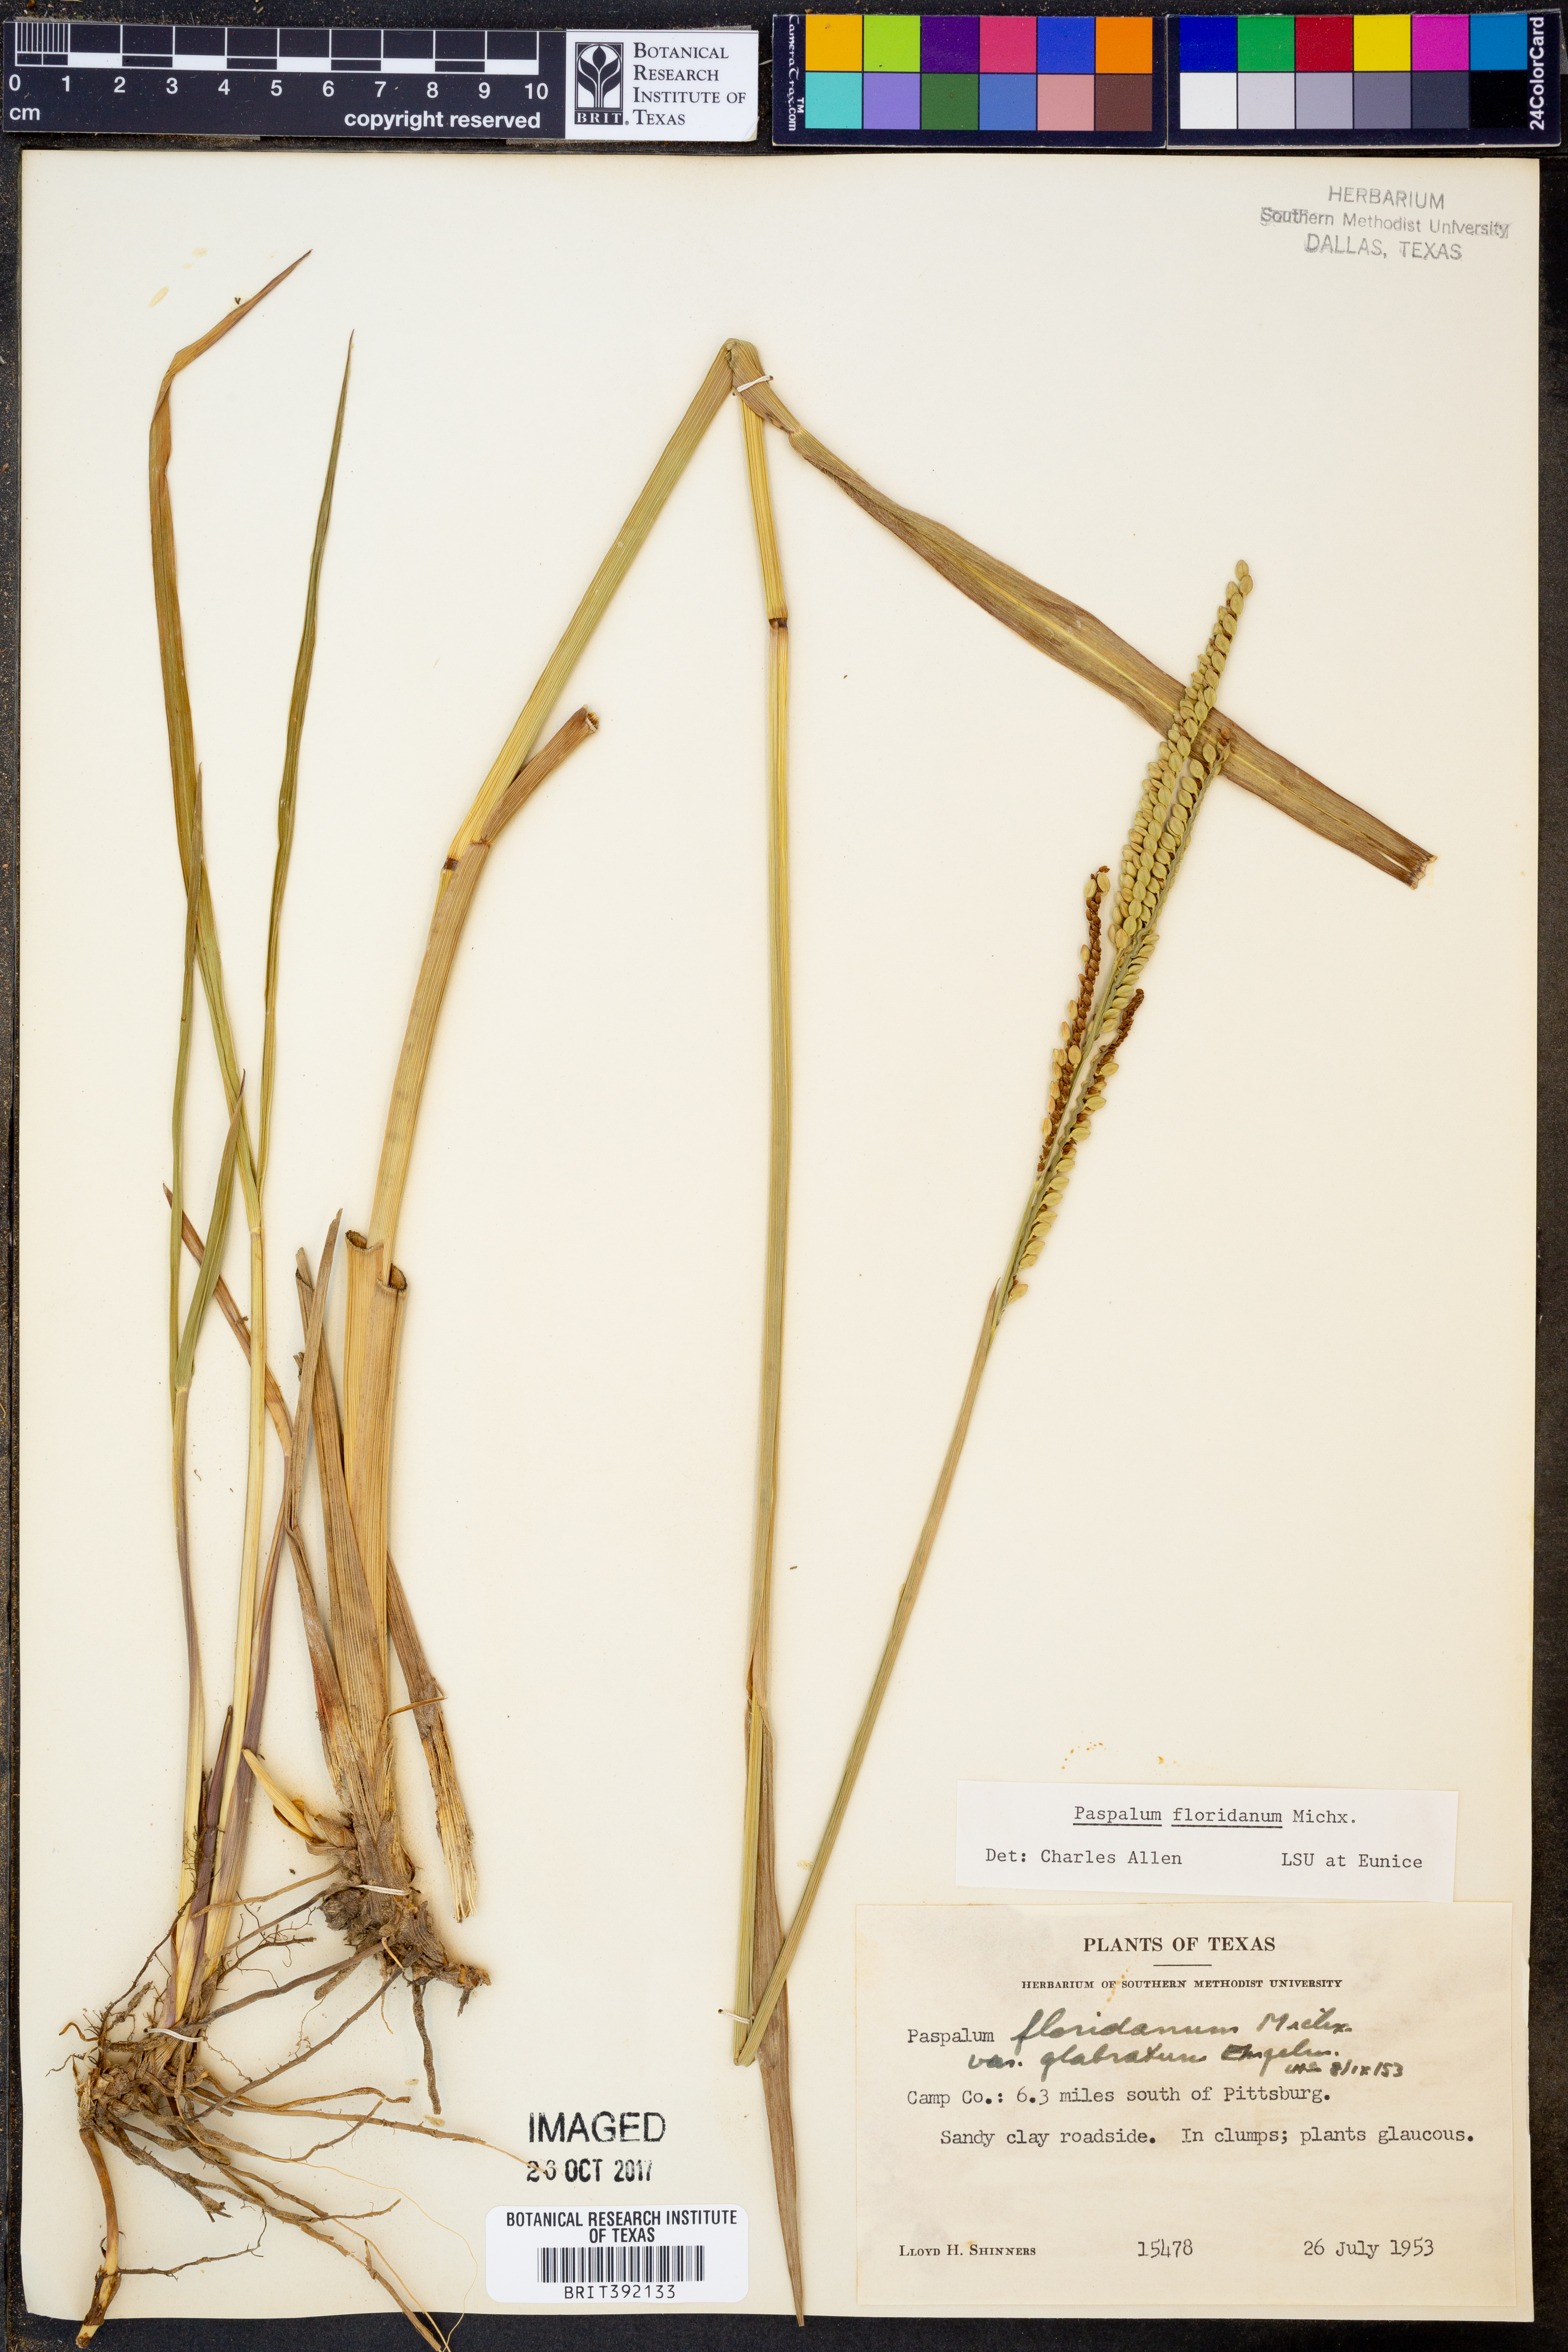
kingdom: Plantae
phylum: Tracheophyta
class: Liliopsida
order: Poales
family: Poaceae
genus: Paspalum
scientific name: Paspalum floridanum
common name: Florida paspalum
